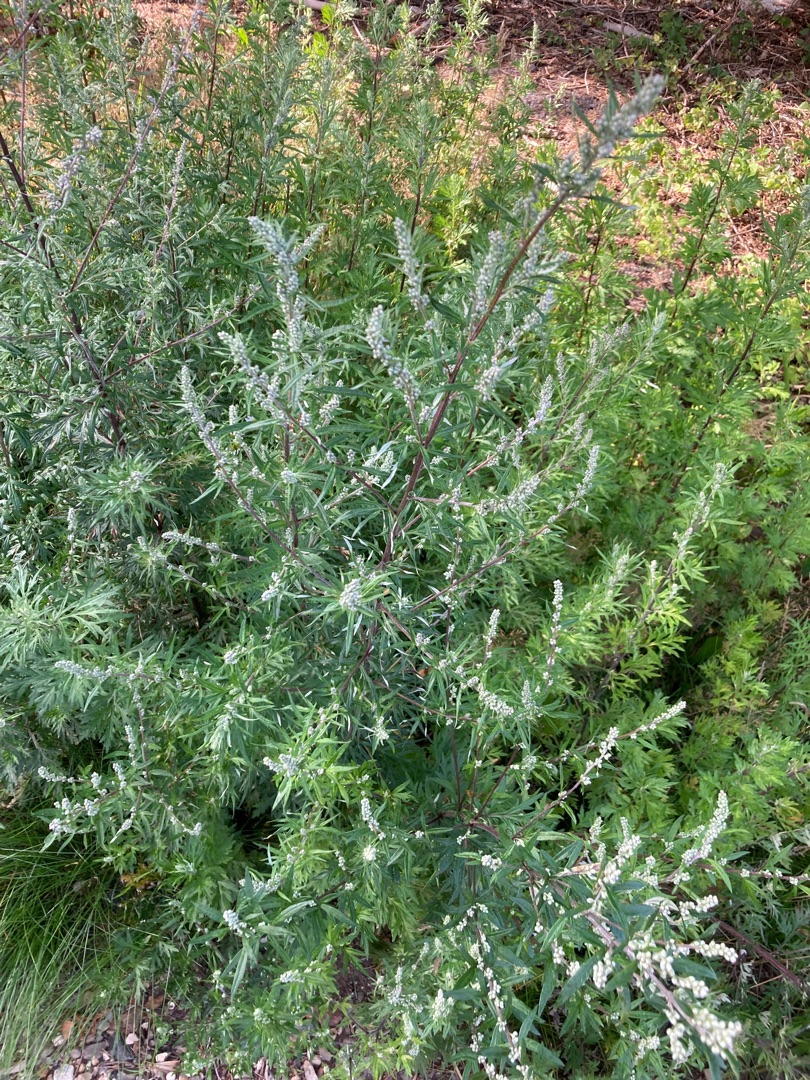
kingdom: Plantae
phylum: Tracheophyta
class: Magnoliopsida
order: Asterales
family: Asteraceae
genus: Artemisia
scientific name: Artemisia vulgaris
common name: Grå-bynke
